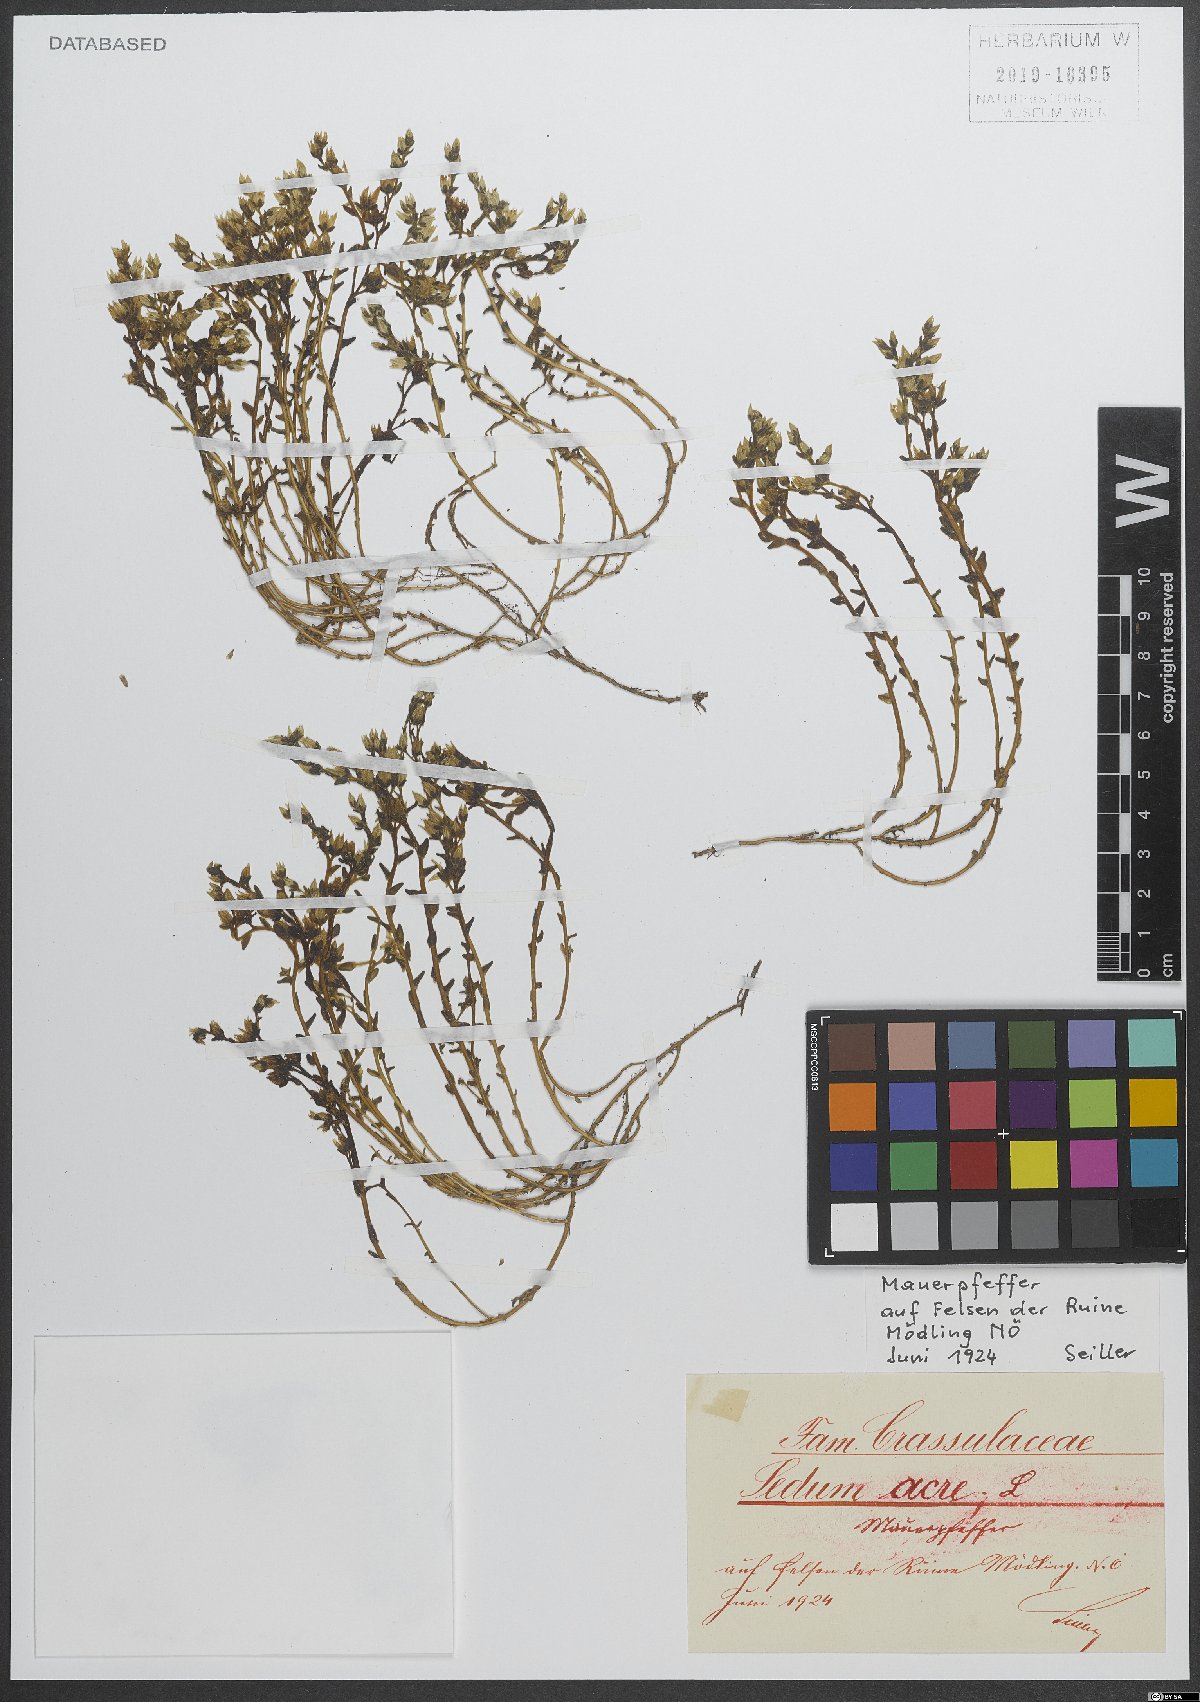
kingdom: Plantae
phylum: Tracheophyta
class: Magnoliopsida
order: Saxifragales
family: Crassulaceae
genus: Sedum
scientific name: Sedum acre
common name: Biting stonecrop
